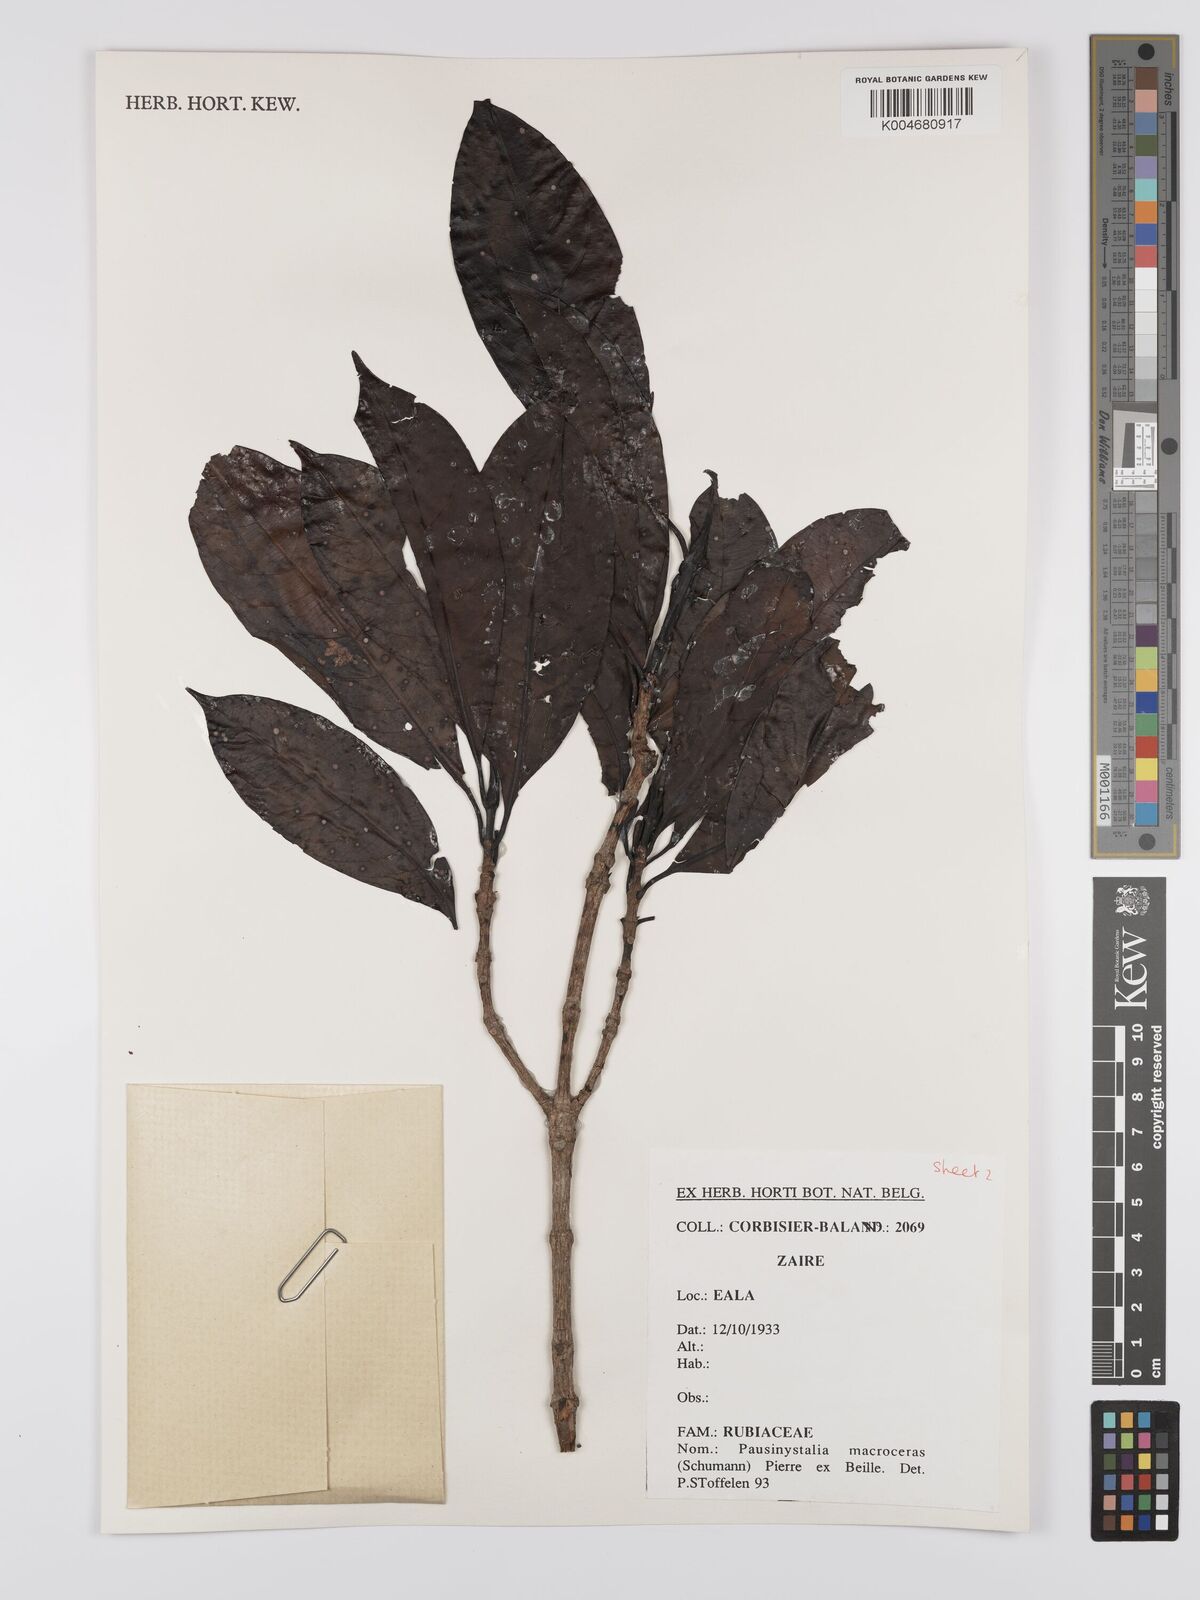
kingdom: Plantae
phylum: Tracheophyta
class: Magnoliopsida
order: Gentianales
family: Rubiaceae
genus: Corynanthe
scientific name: Corynanthe macroceras
